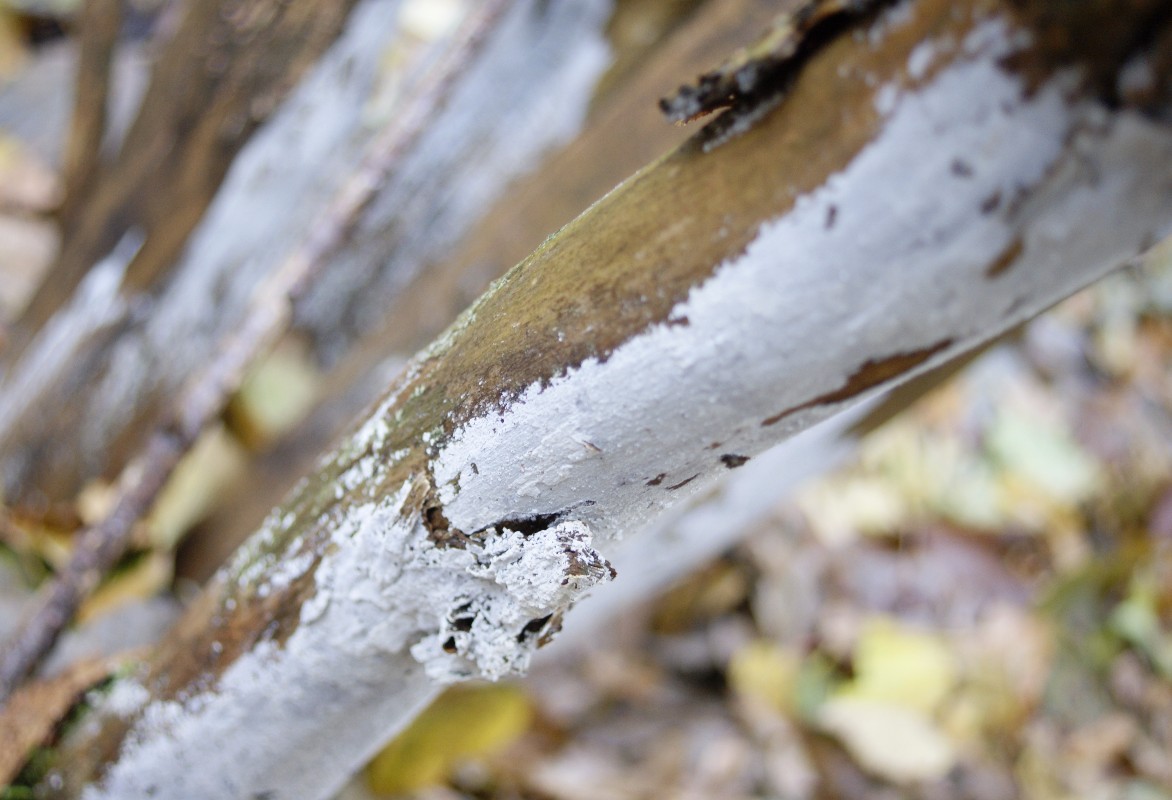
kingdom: Fungi
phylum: Basidiomycota
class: Agaricomycetes
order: Corticiales
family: Corticiaceae
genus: Lyomyces
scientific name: Lyomyces sambuci
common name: almindelig hyldehinde
